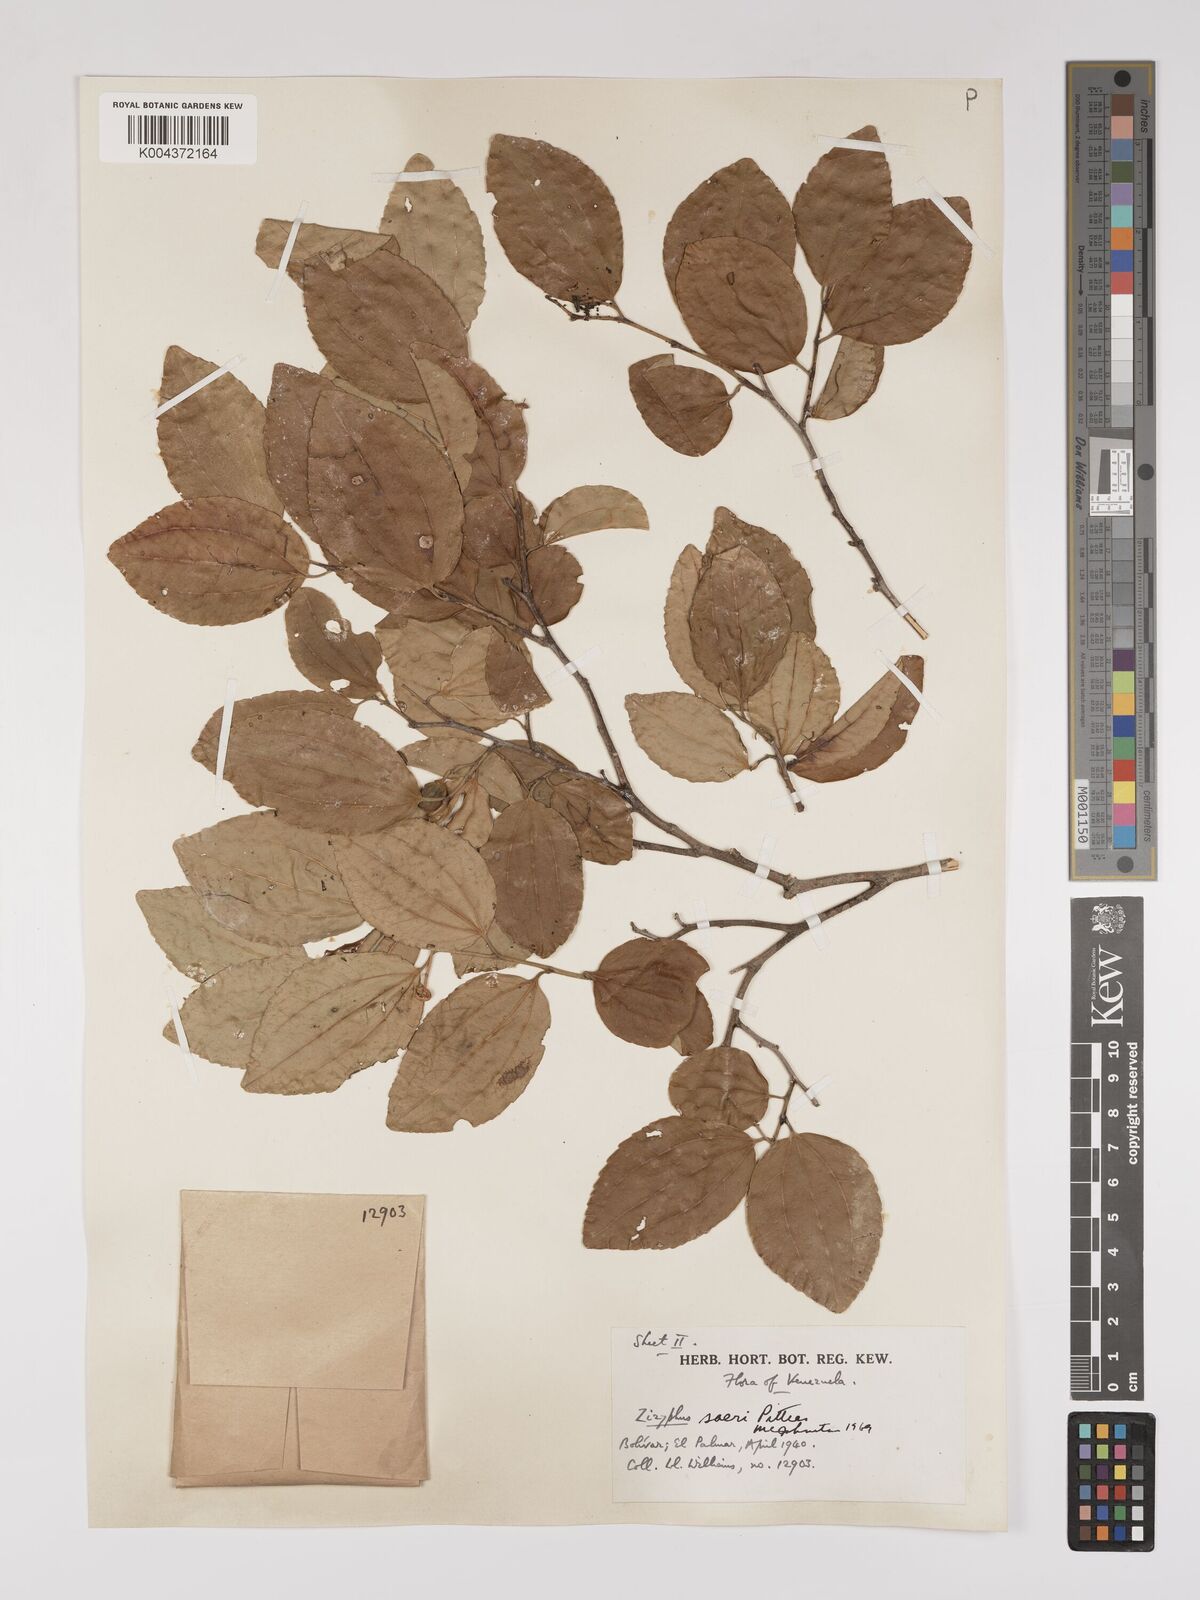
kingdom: Plantae
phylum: Tracheophyta
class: Magnoliopsida
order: Rosales
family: Rhamnaceae
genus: Sarcomphalus
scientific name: Sarcomphalus saeri
